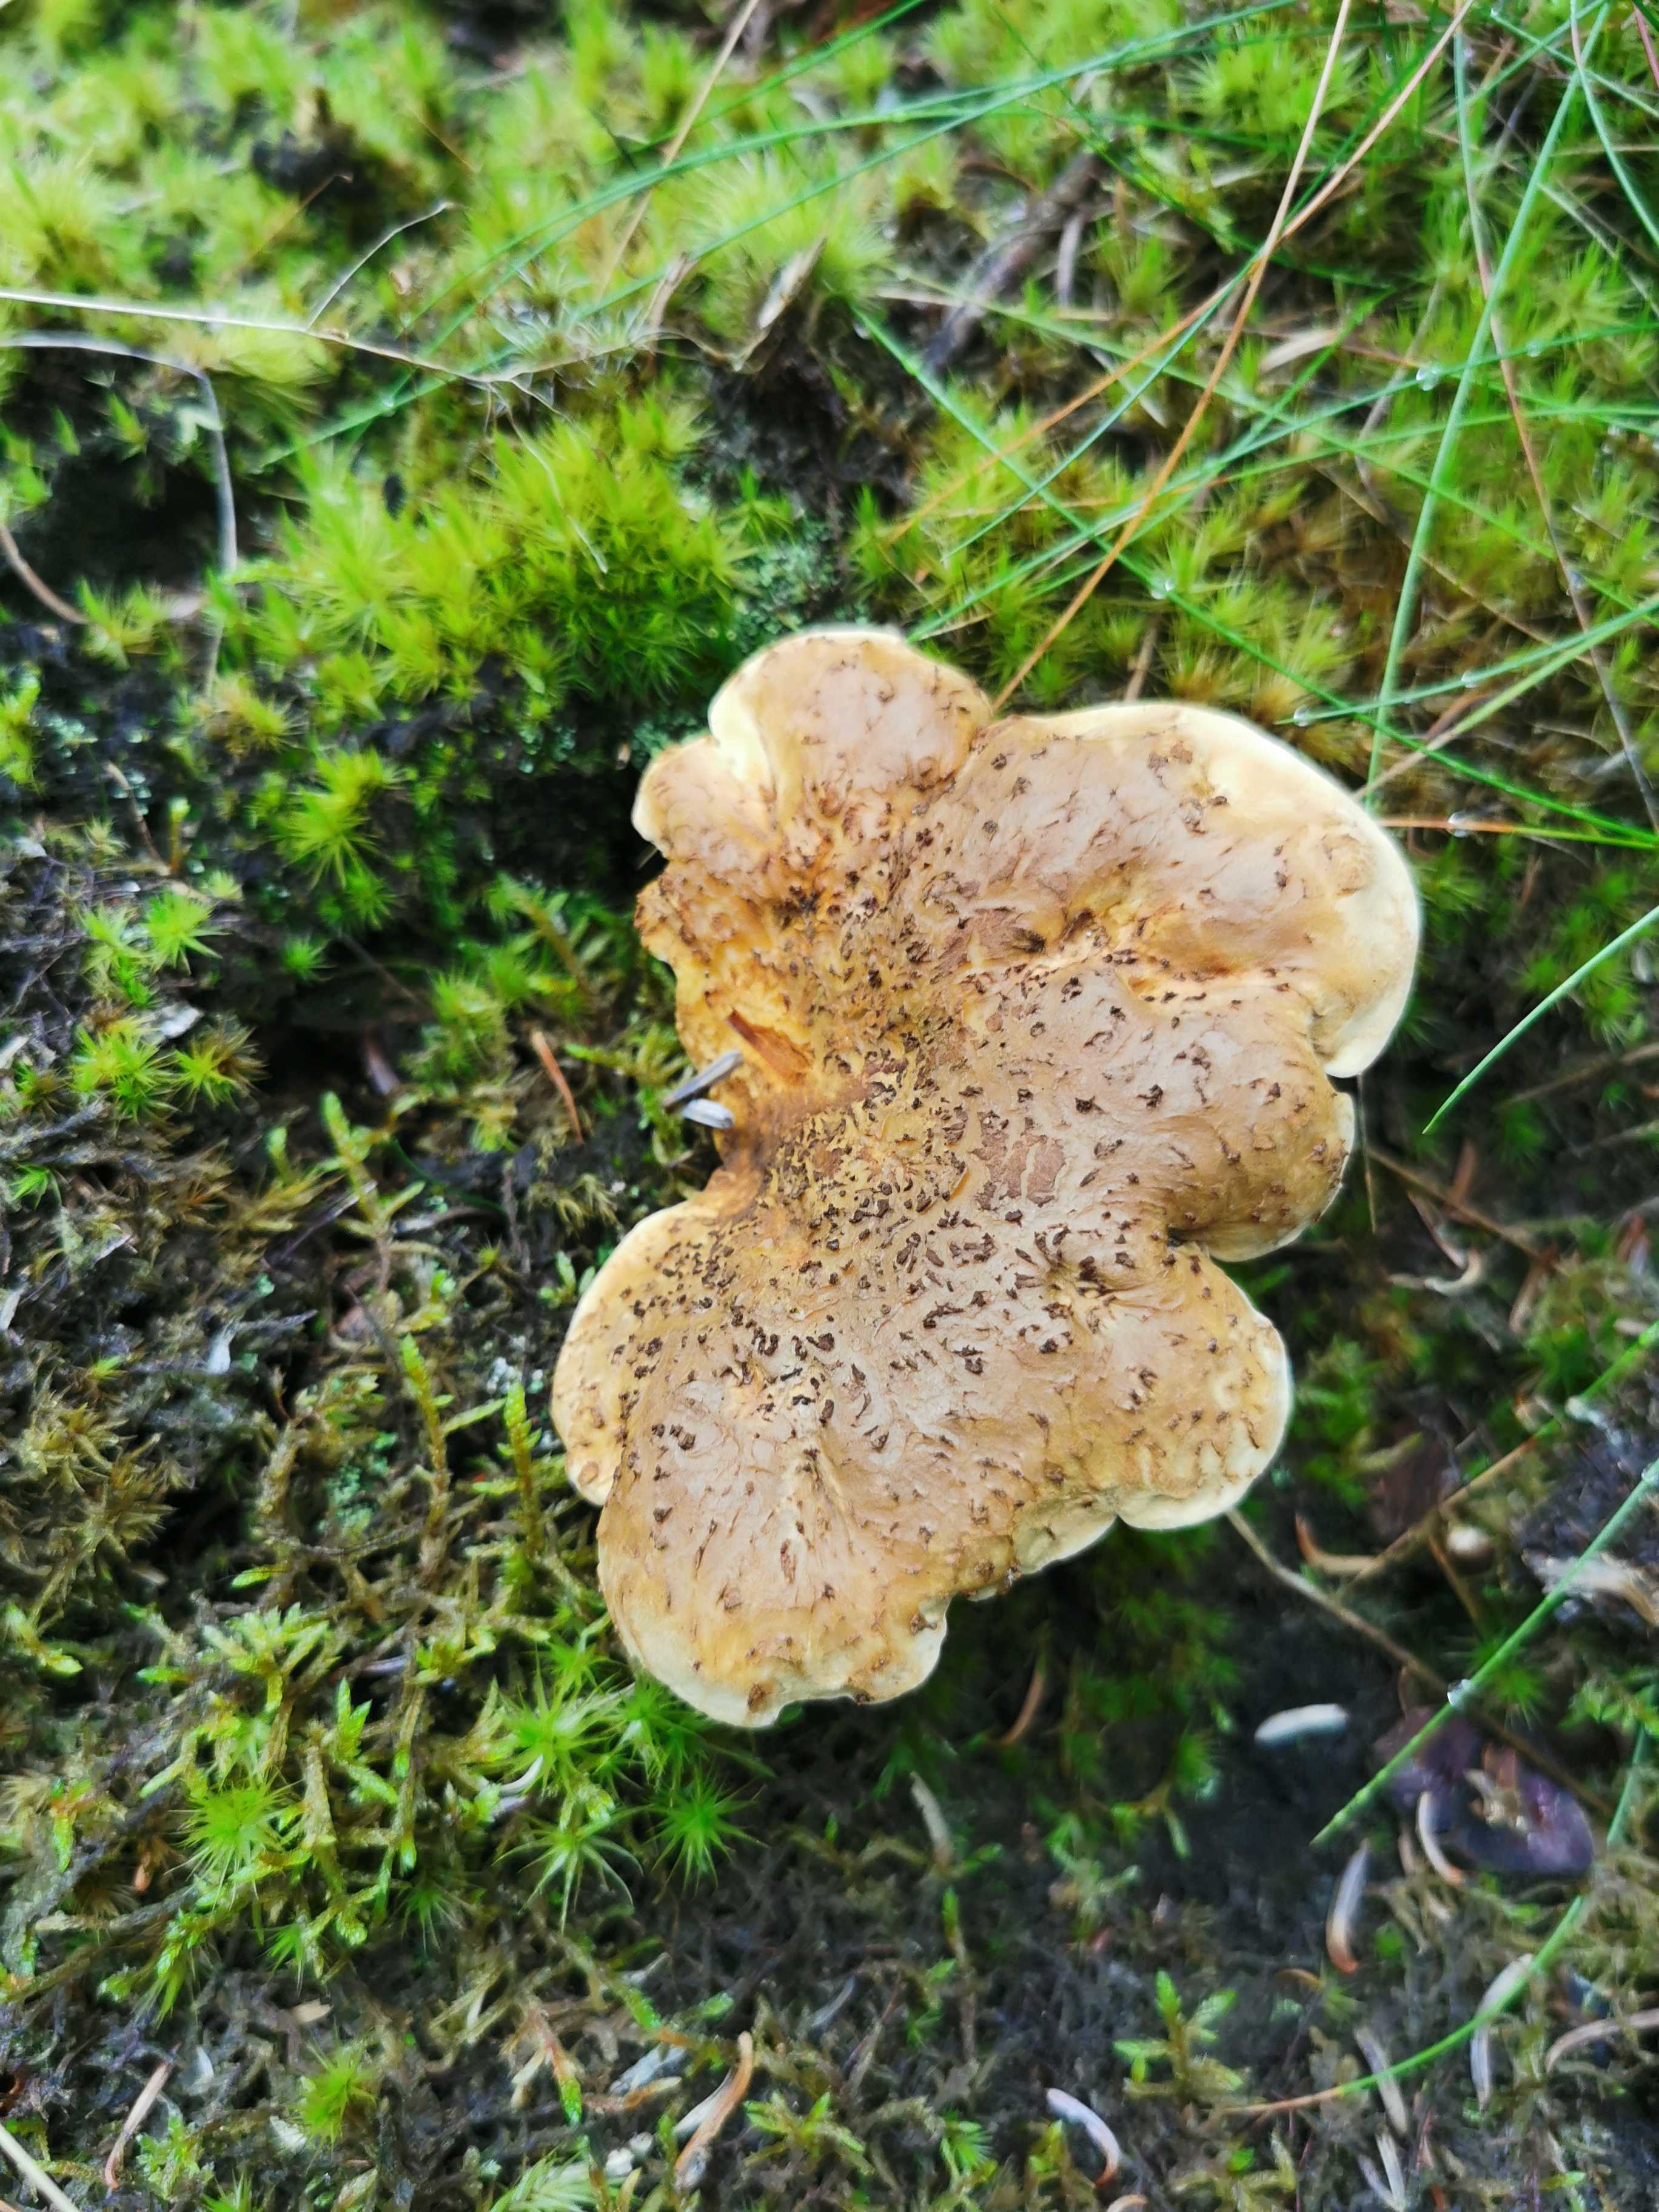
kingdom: Fungi
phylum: Basidiomycota
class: Agaricomycetes
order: Boletales
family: Tapinellaceae
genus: Tapinella
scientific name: Tapinella atrotomentosa
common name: sortfiltet viftesvamp
